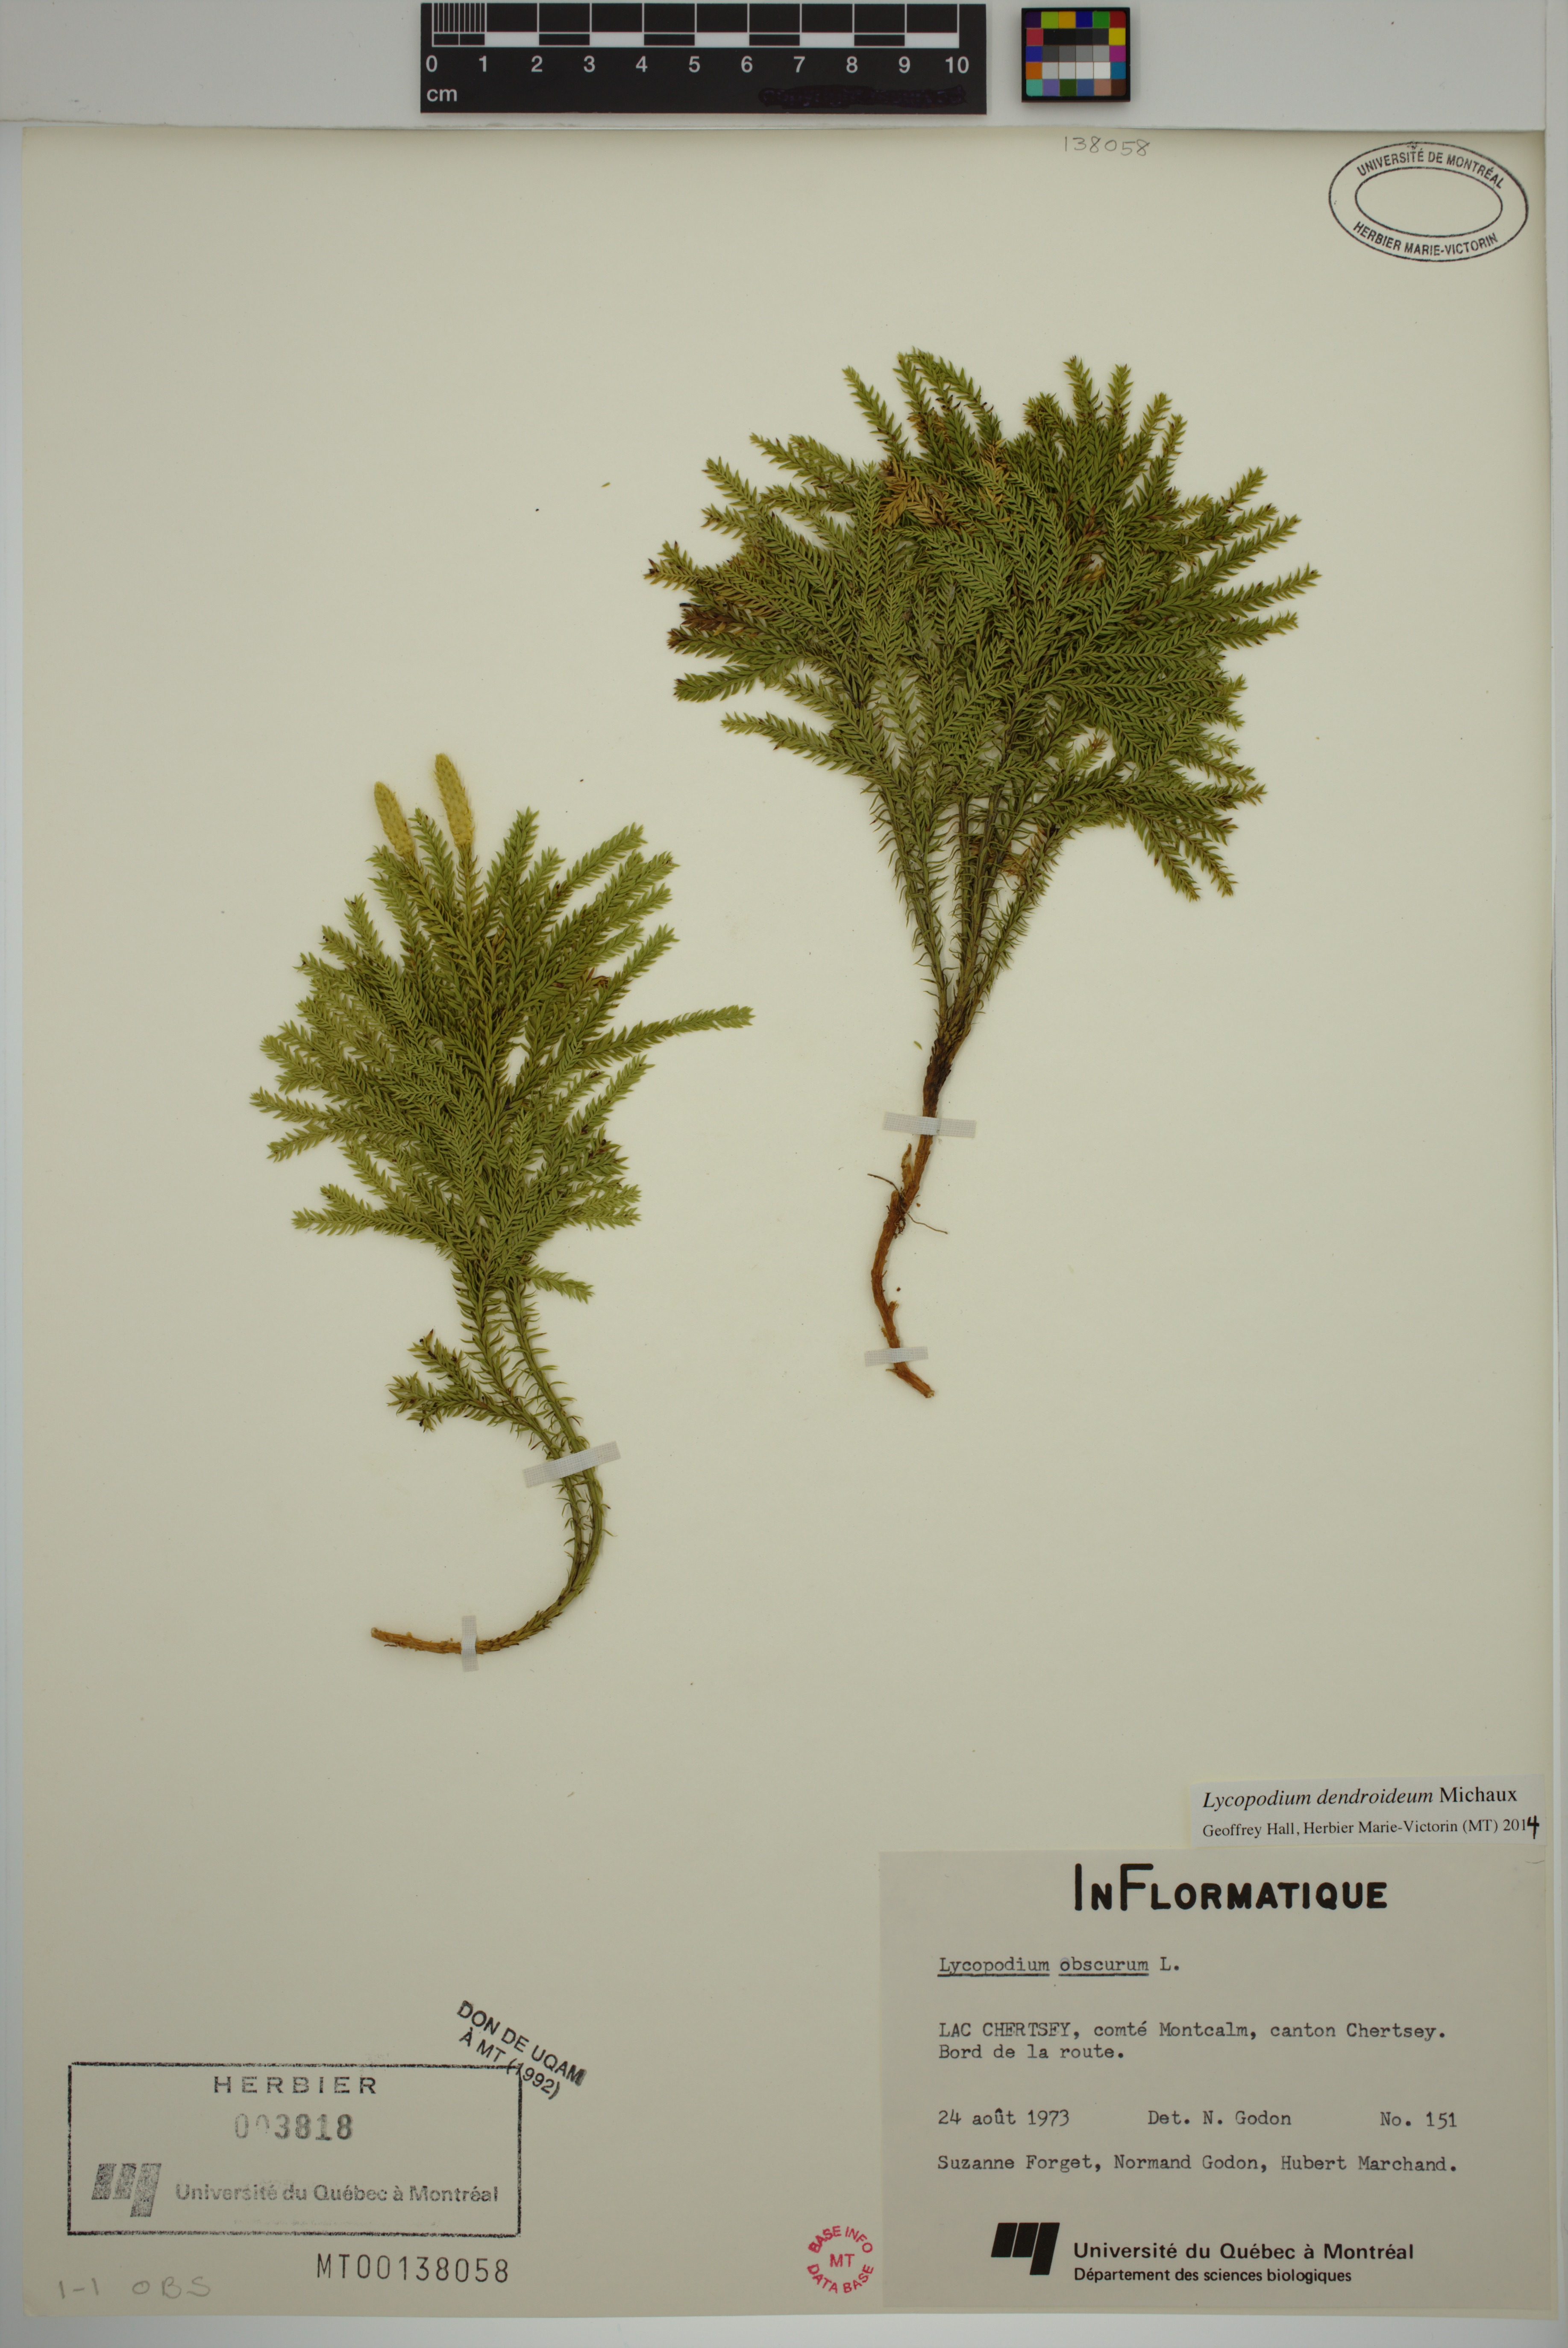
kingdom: Plantae
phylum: Tracheophyta
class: Lycopodiopsida
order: Lycopodiales
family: Lycopodiaceae
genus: Dendrolycopodium
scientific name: Dendrolycopodium dendroideum
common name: Northern tree-clubmoss
